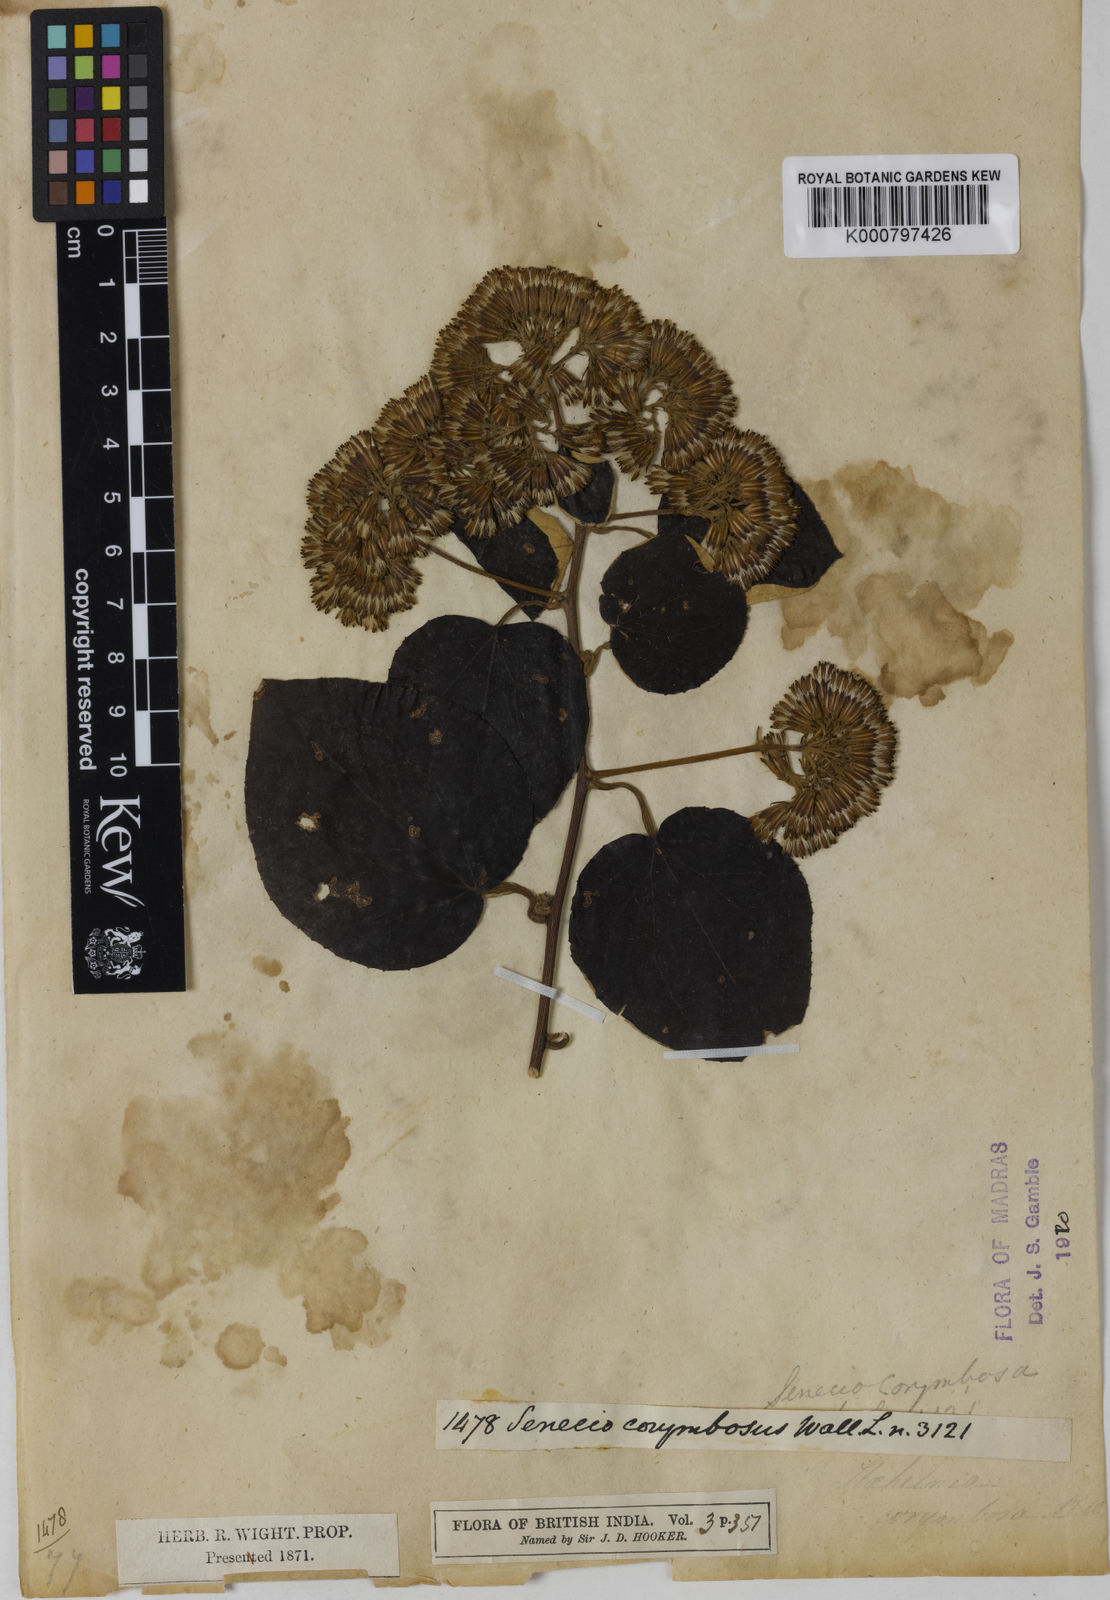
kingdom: Plantae
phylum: Tracheophyta
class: Magnoliopsida
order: Asterales
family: Asteraceae
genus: Cissampelopsis
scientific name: Cissampelopsis corymbosa
